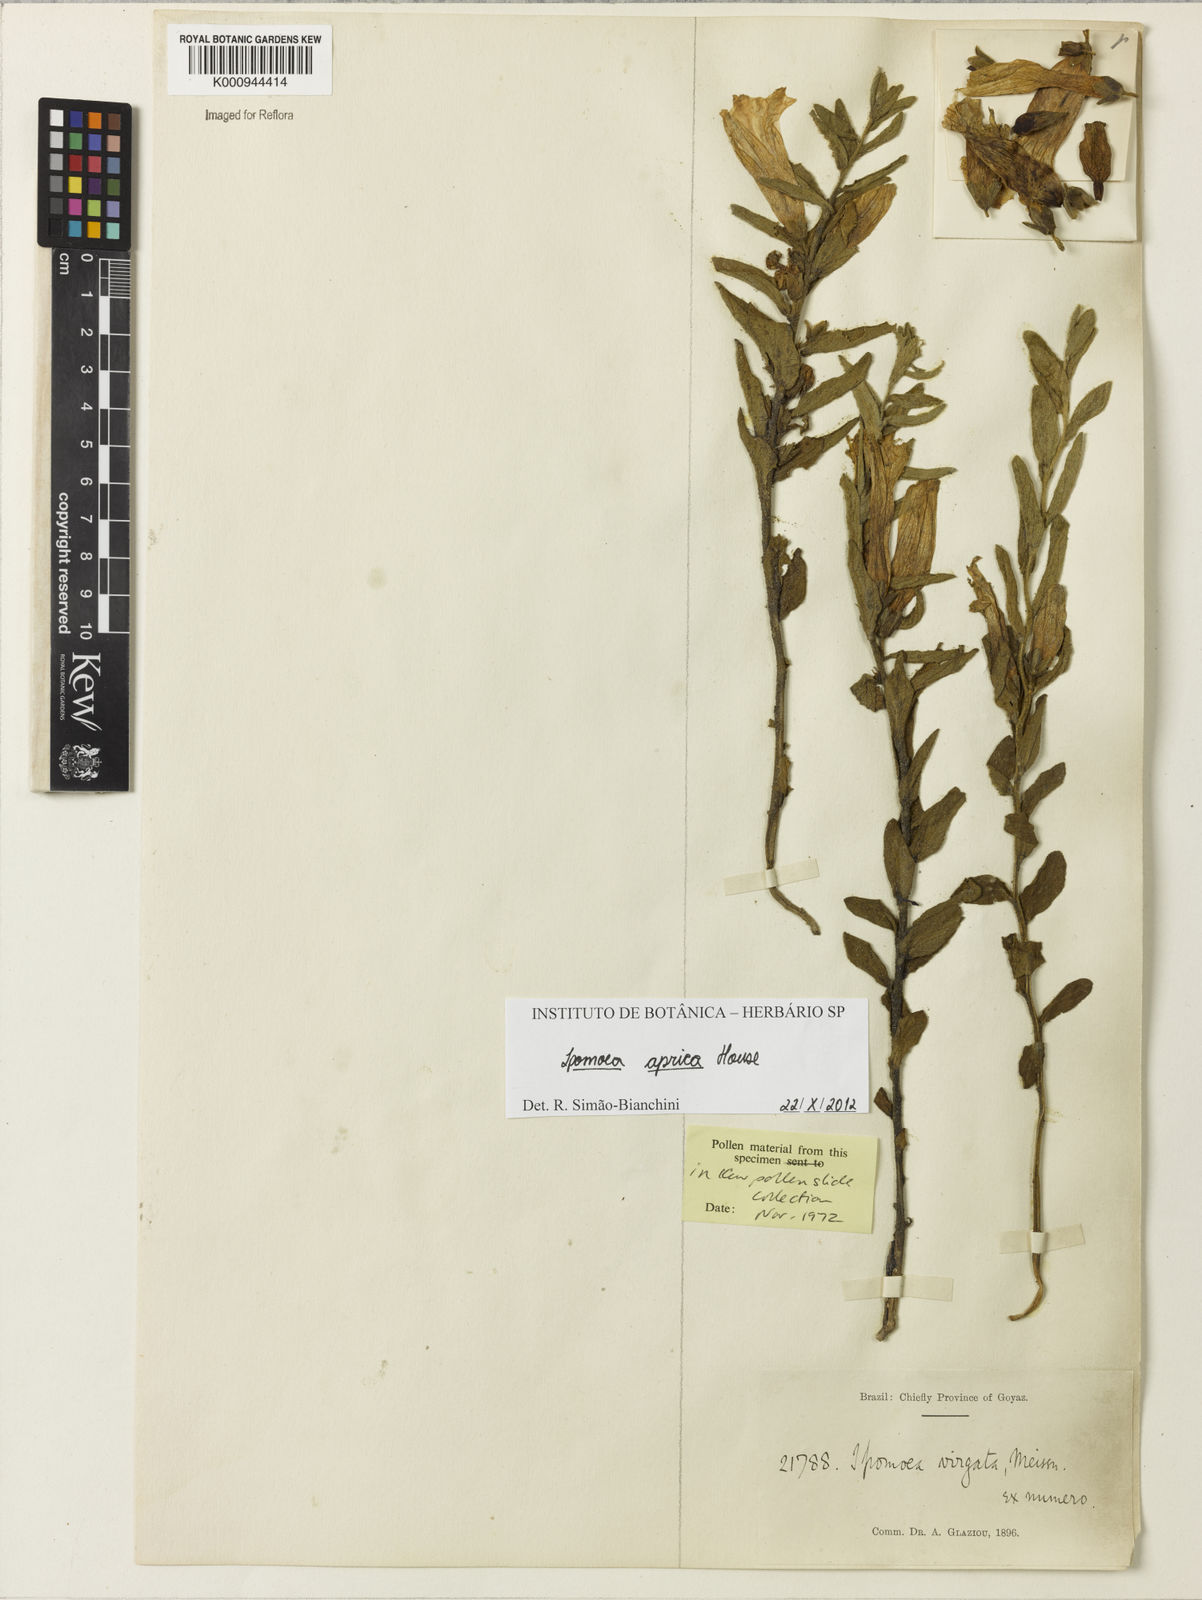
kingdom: Plantae
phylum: Tracheophyta
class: Magnoliopsida
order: Solanales
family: Convolvulaceae
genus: Ipomoea
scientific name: Ipomoea aprica
